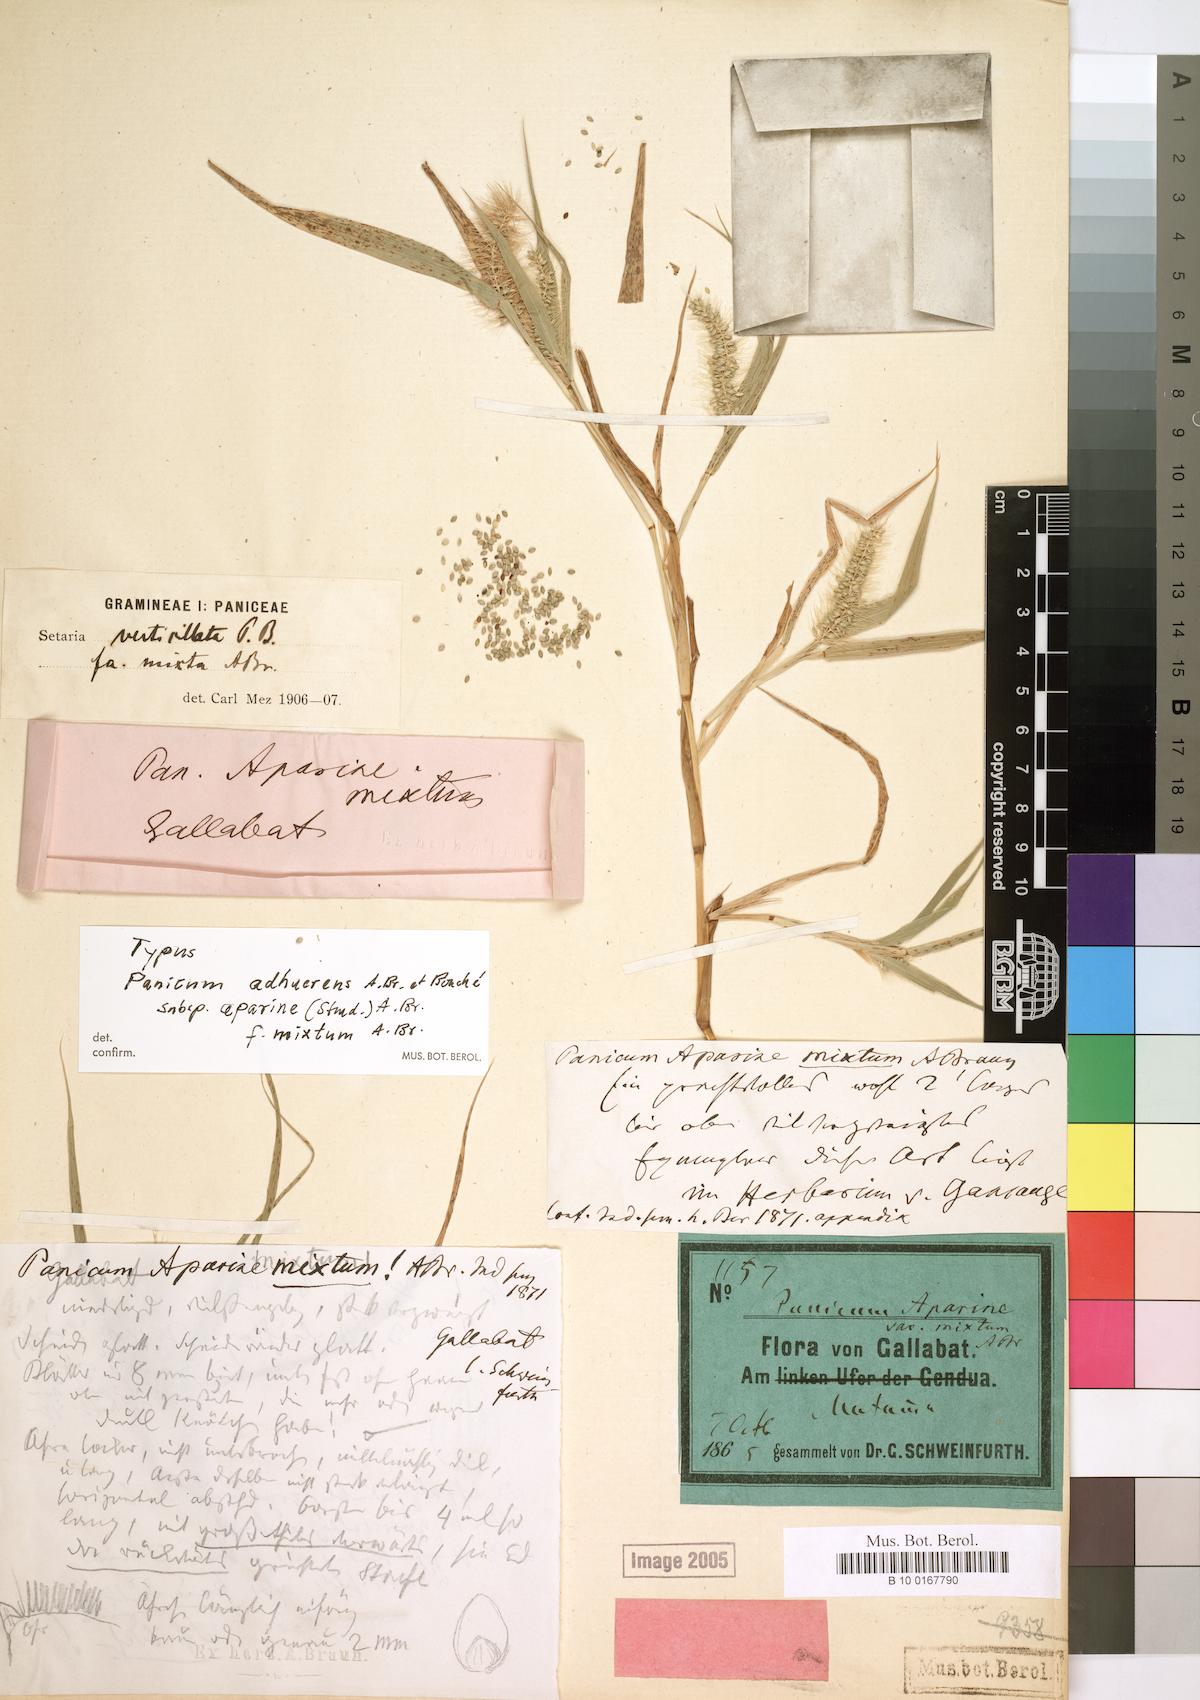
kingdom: Plantae
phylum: Tracheophyta
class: Liliopsida
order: Poales
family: Poaceae
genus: Setaria
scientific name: Setaria adhaerens
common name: Adherent bristle-grass
